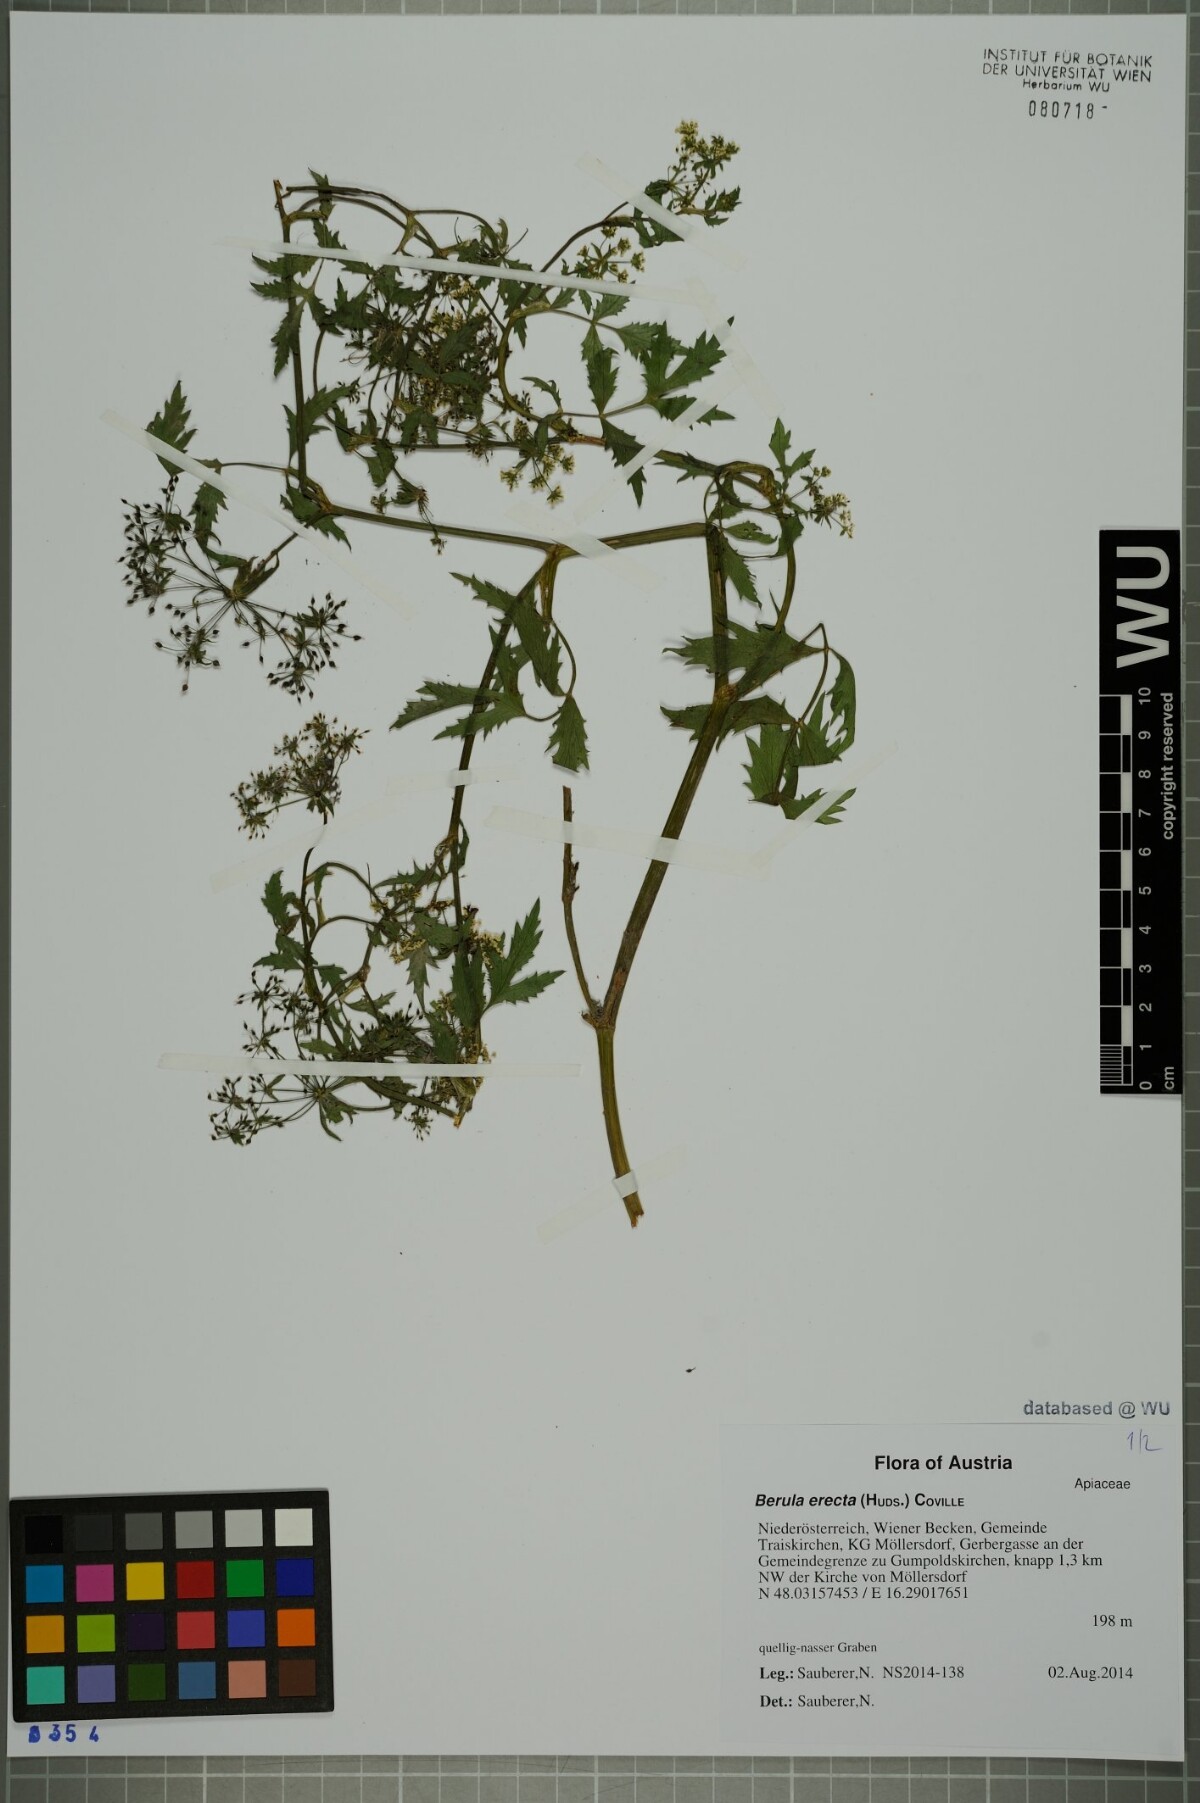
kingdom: Plantae
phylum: Tracheophyta
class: Magnoliopsida
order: Apiales
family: Apiaceae
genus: Berula
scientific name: Berula erecta
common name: Lesser water-parsnip
